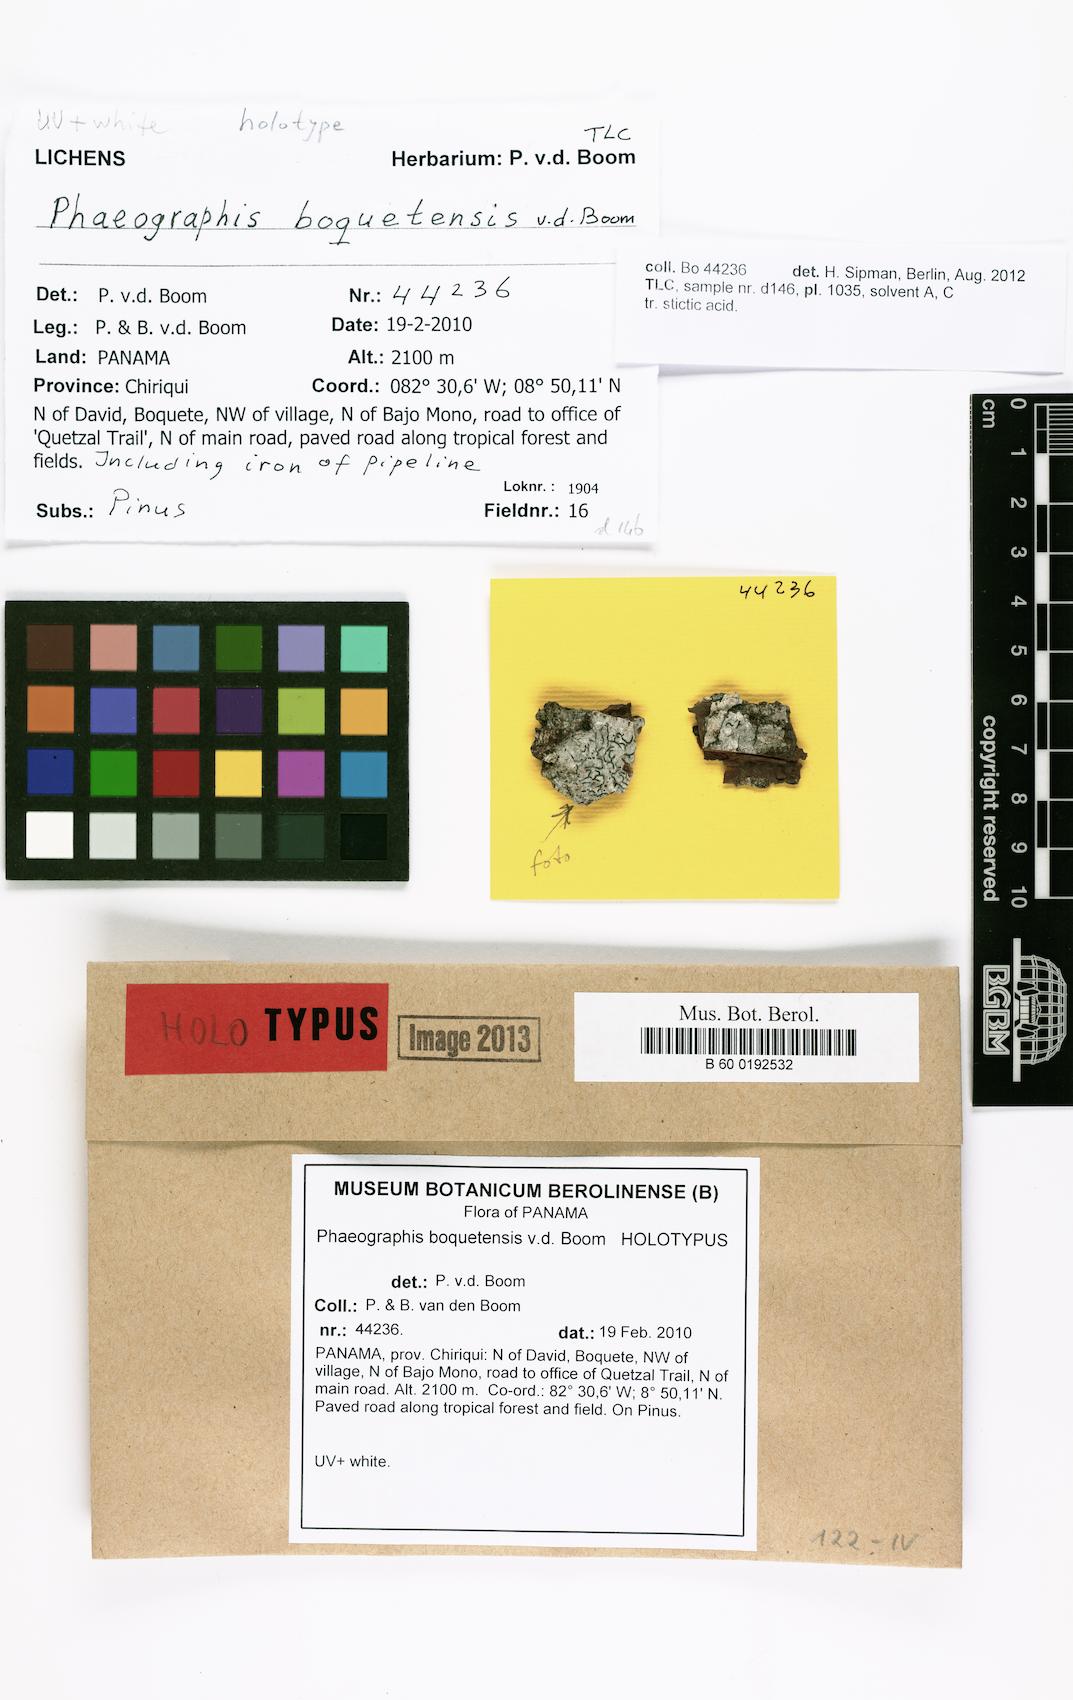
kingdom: Fungi
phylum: Ascomycota
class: Lecanoromycetes
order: Ostropales
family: Graphidaceae
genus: Phaeographis
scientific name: Phaeographis boquetensis
